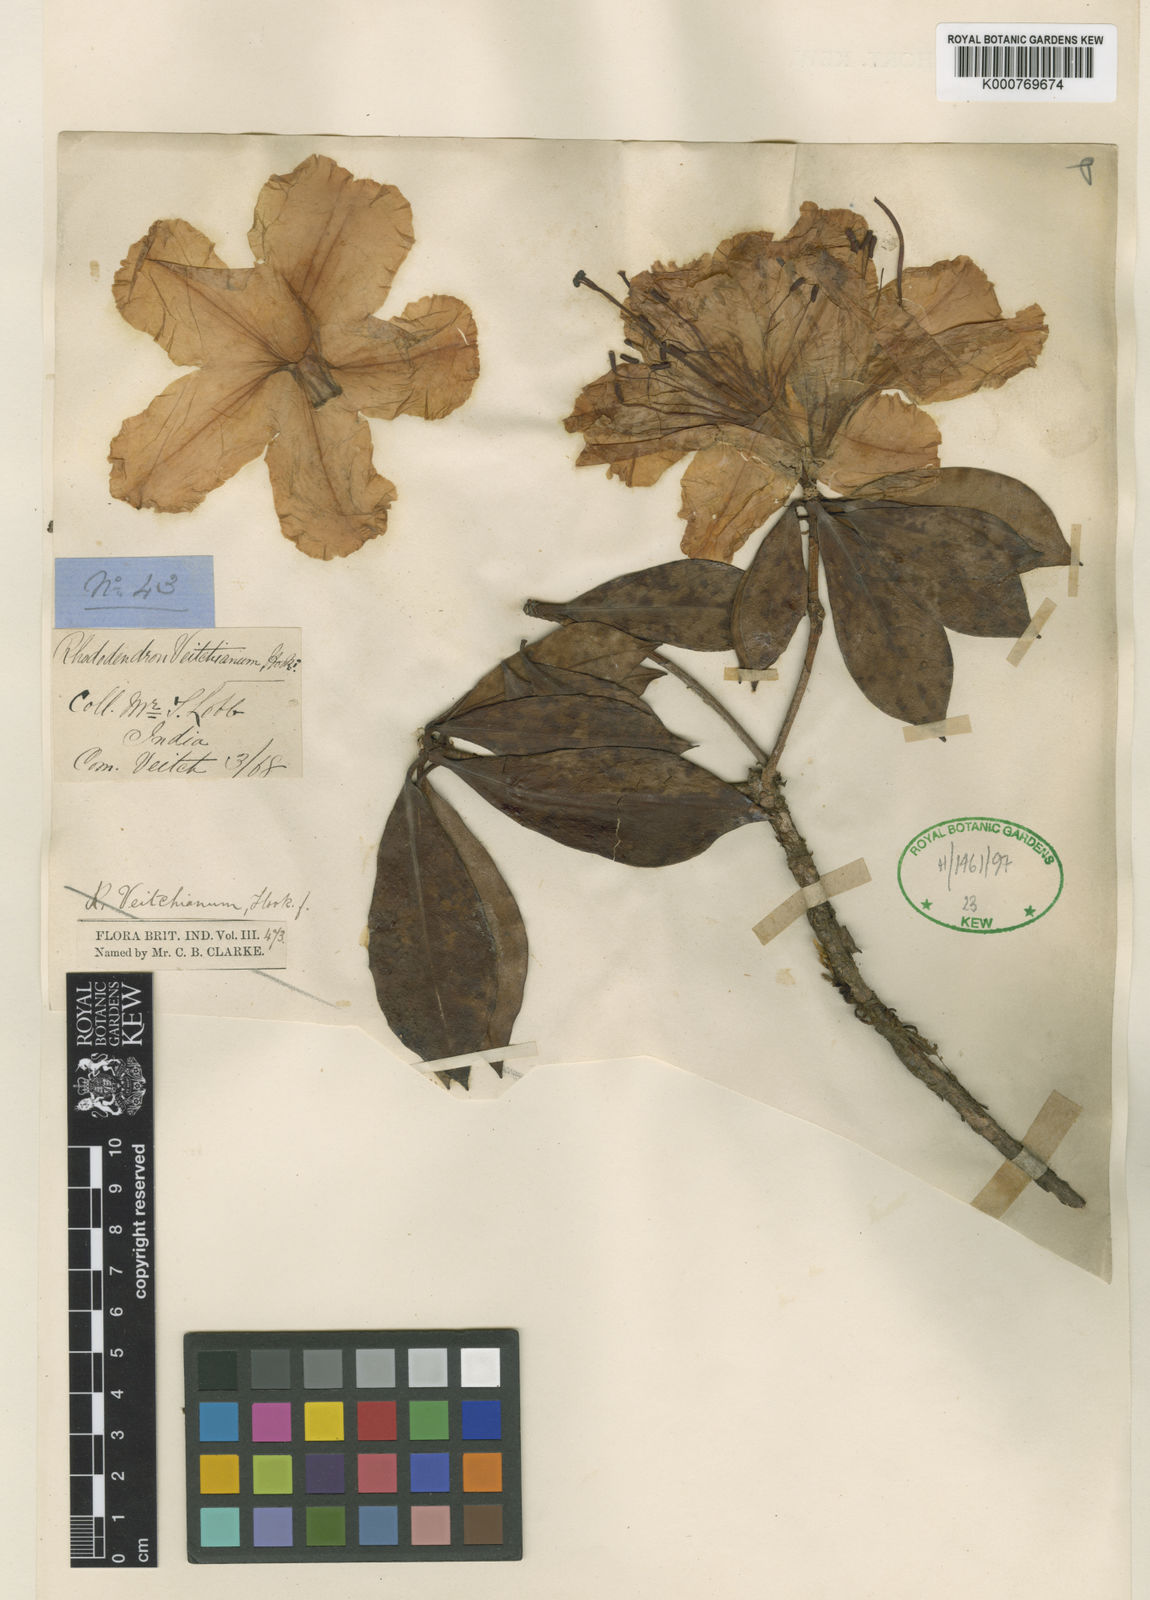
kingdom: Plantae
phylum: Tracheophyta
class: Magnoliopsida
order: Ericales
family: Ericaceae
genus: Rhododendron
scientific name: Rhododendron veitchianum
